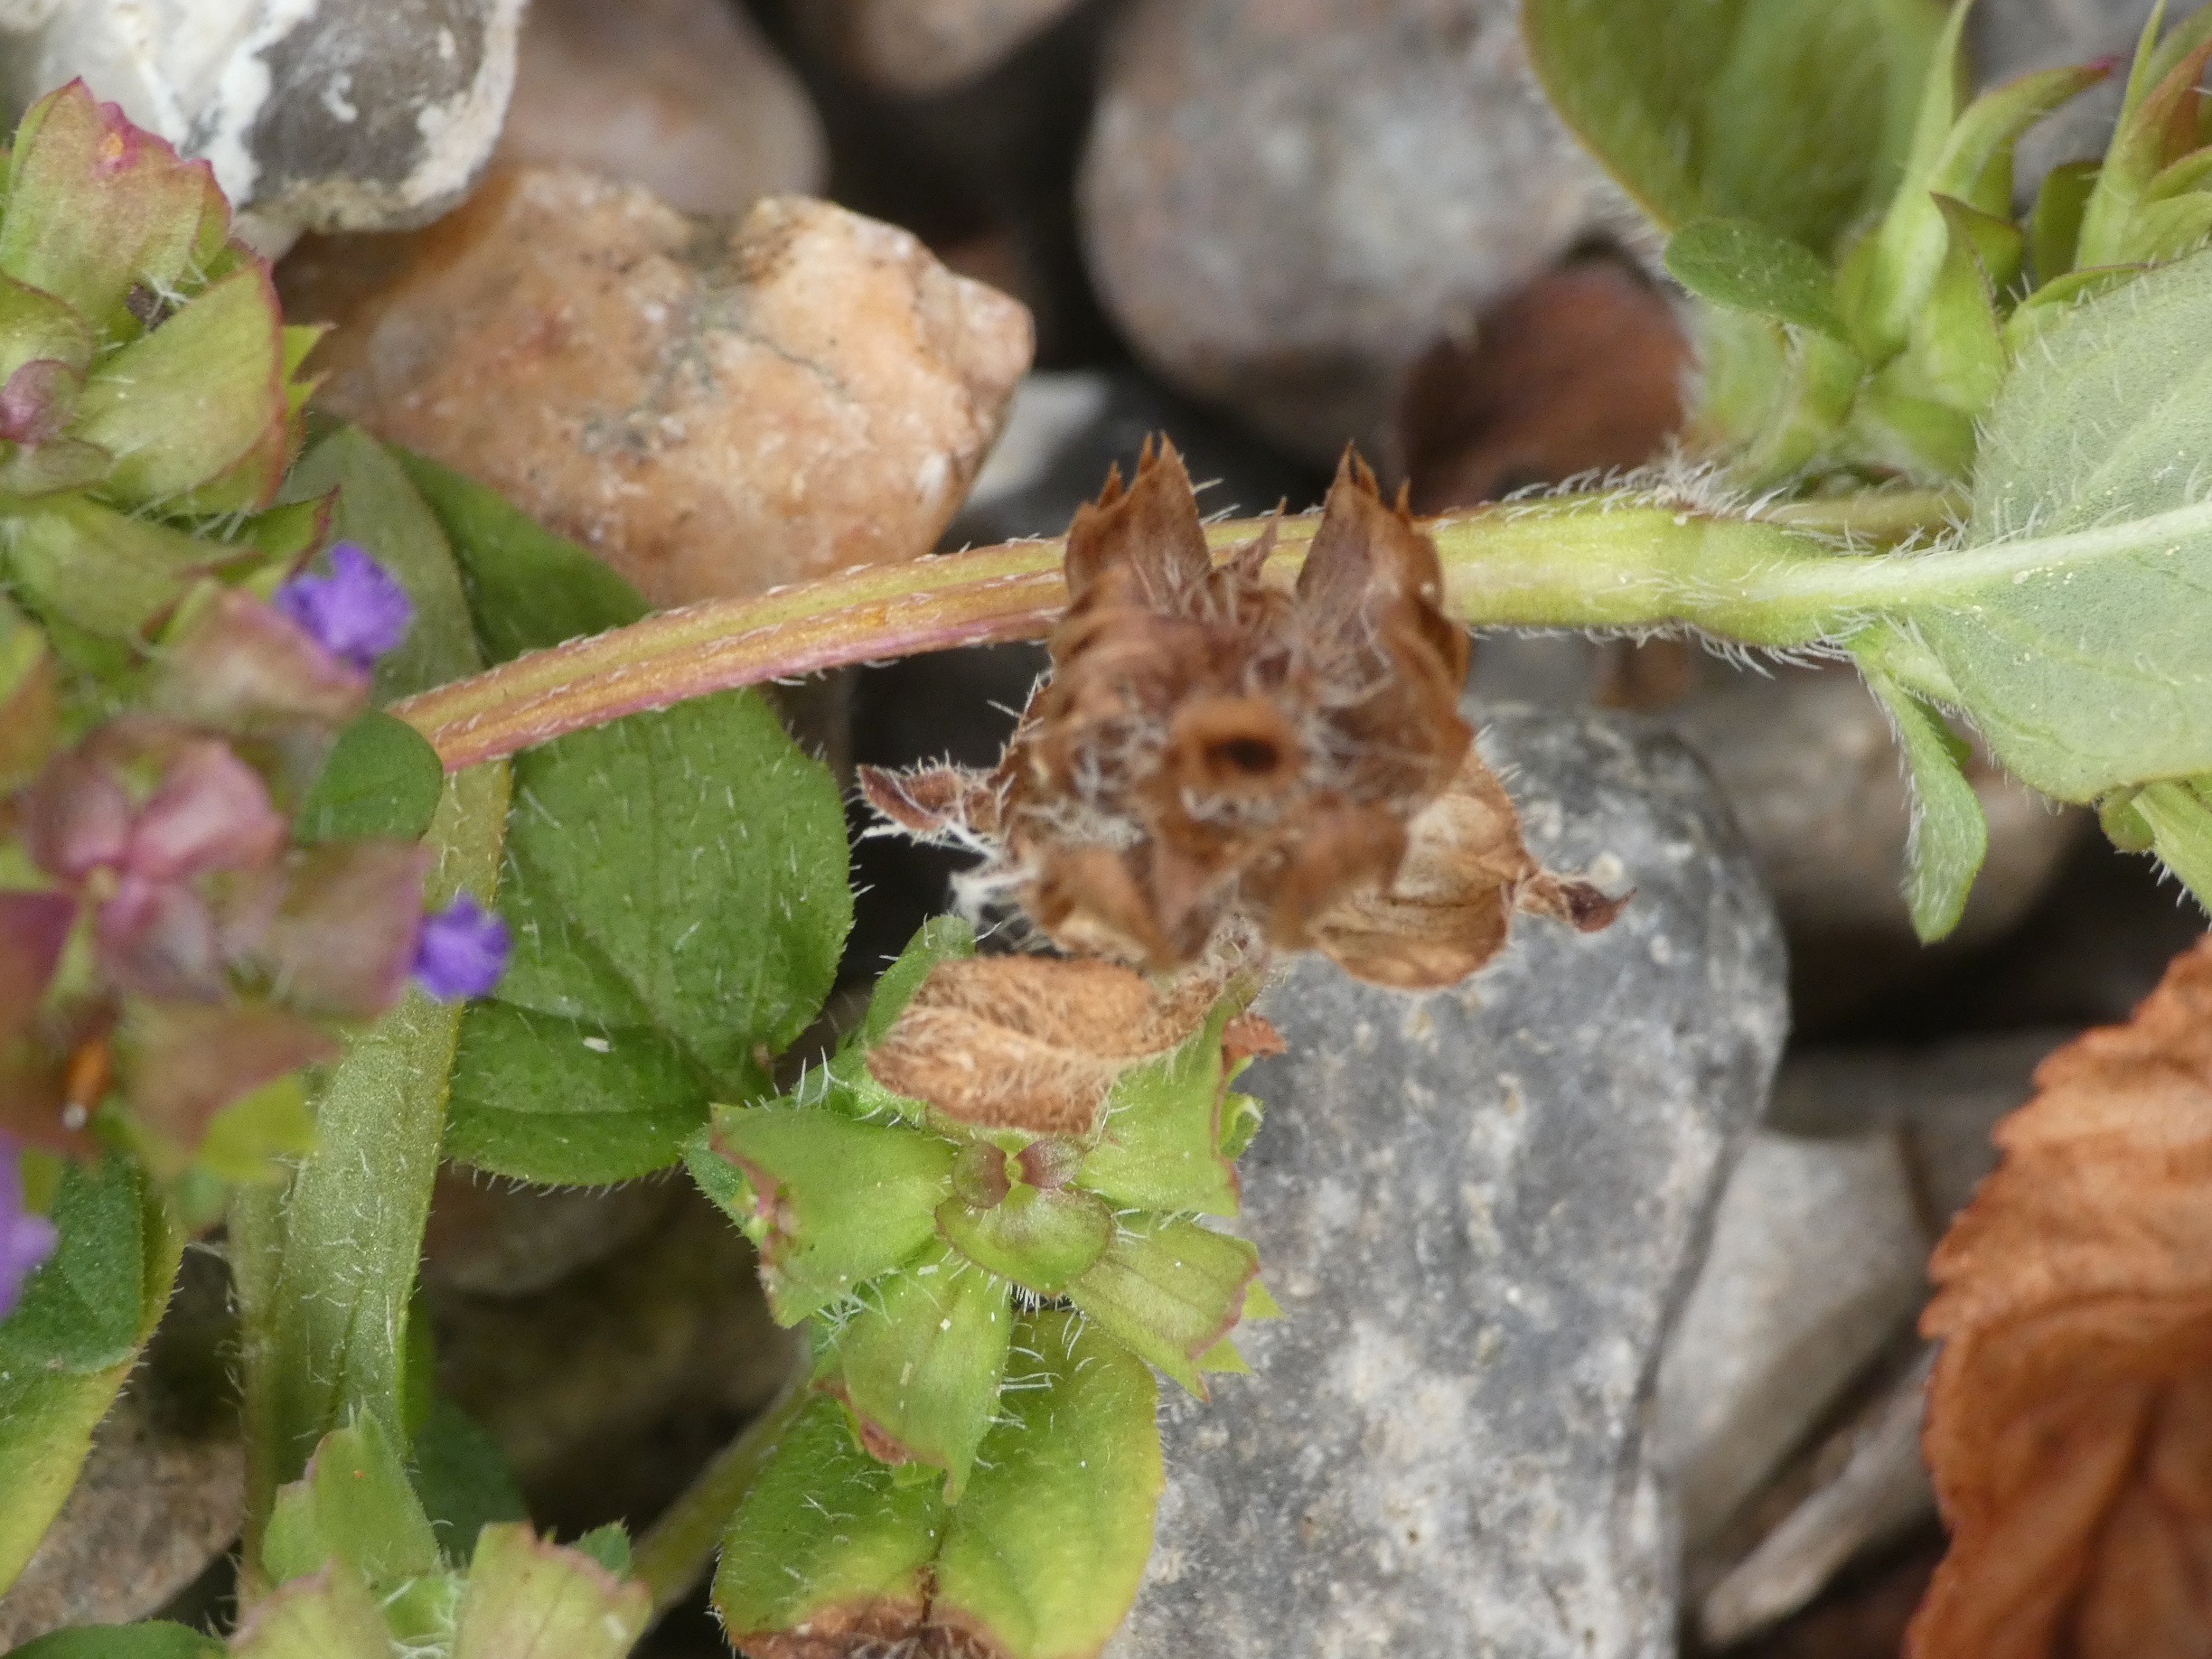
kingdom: Plantae
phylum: Tracheophyta
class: Magnoliopsida
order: Lamiales
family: Lamiaceae
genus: Prunella
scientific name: Prunella vulgaris
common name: Almindelig brunelle
